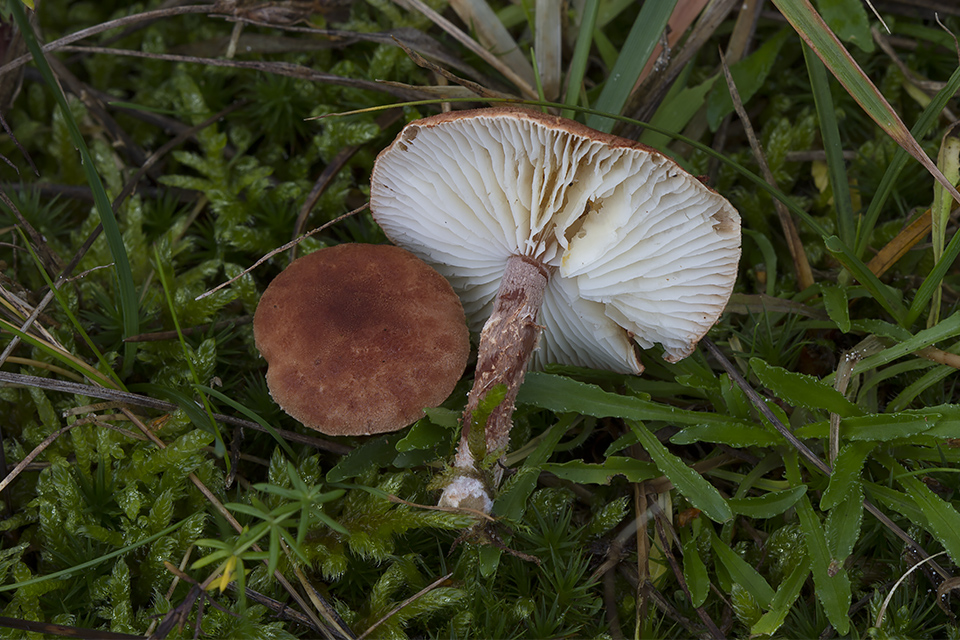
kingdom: Fungi
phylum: Basidiomycota
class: Agaricomycetes
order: Agaricales
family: Agaricaceae
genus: Cystodermella
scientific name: Cystodermella granulosa
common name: kliddet grynhat
